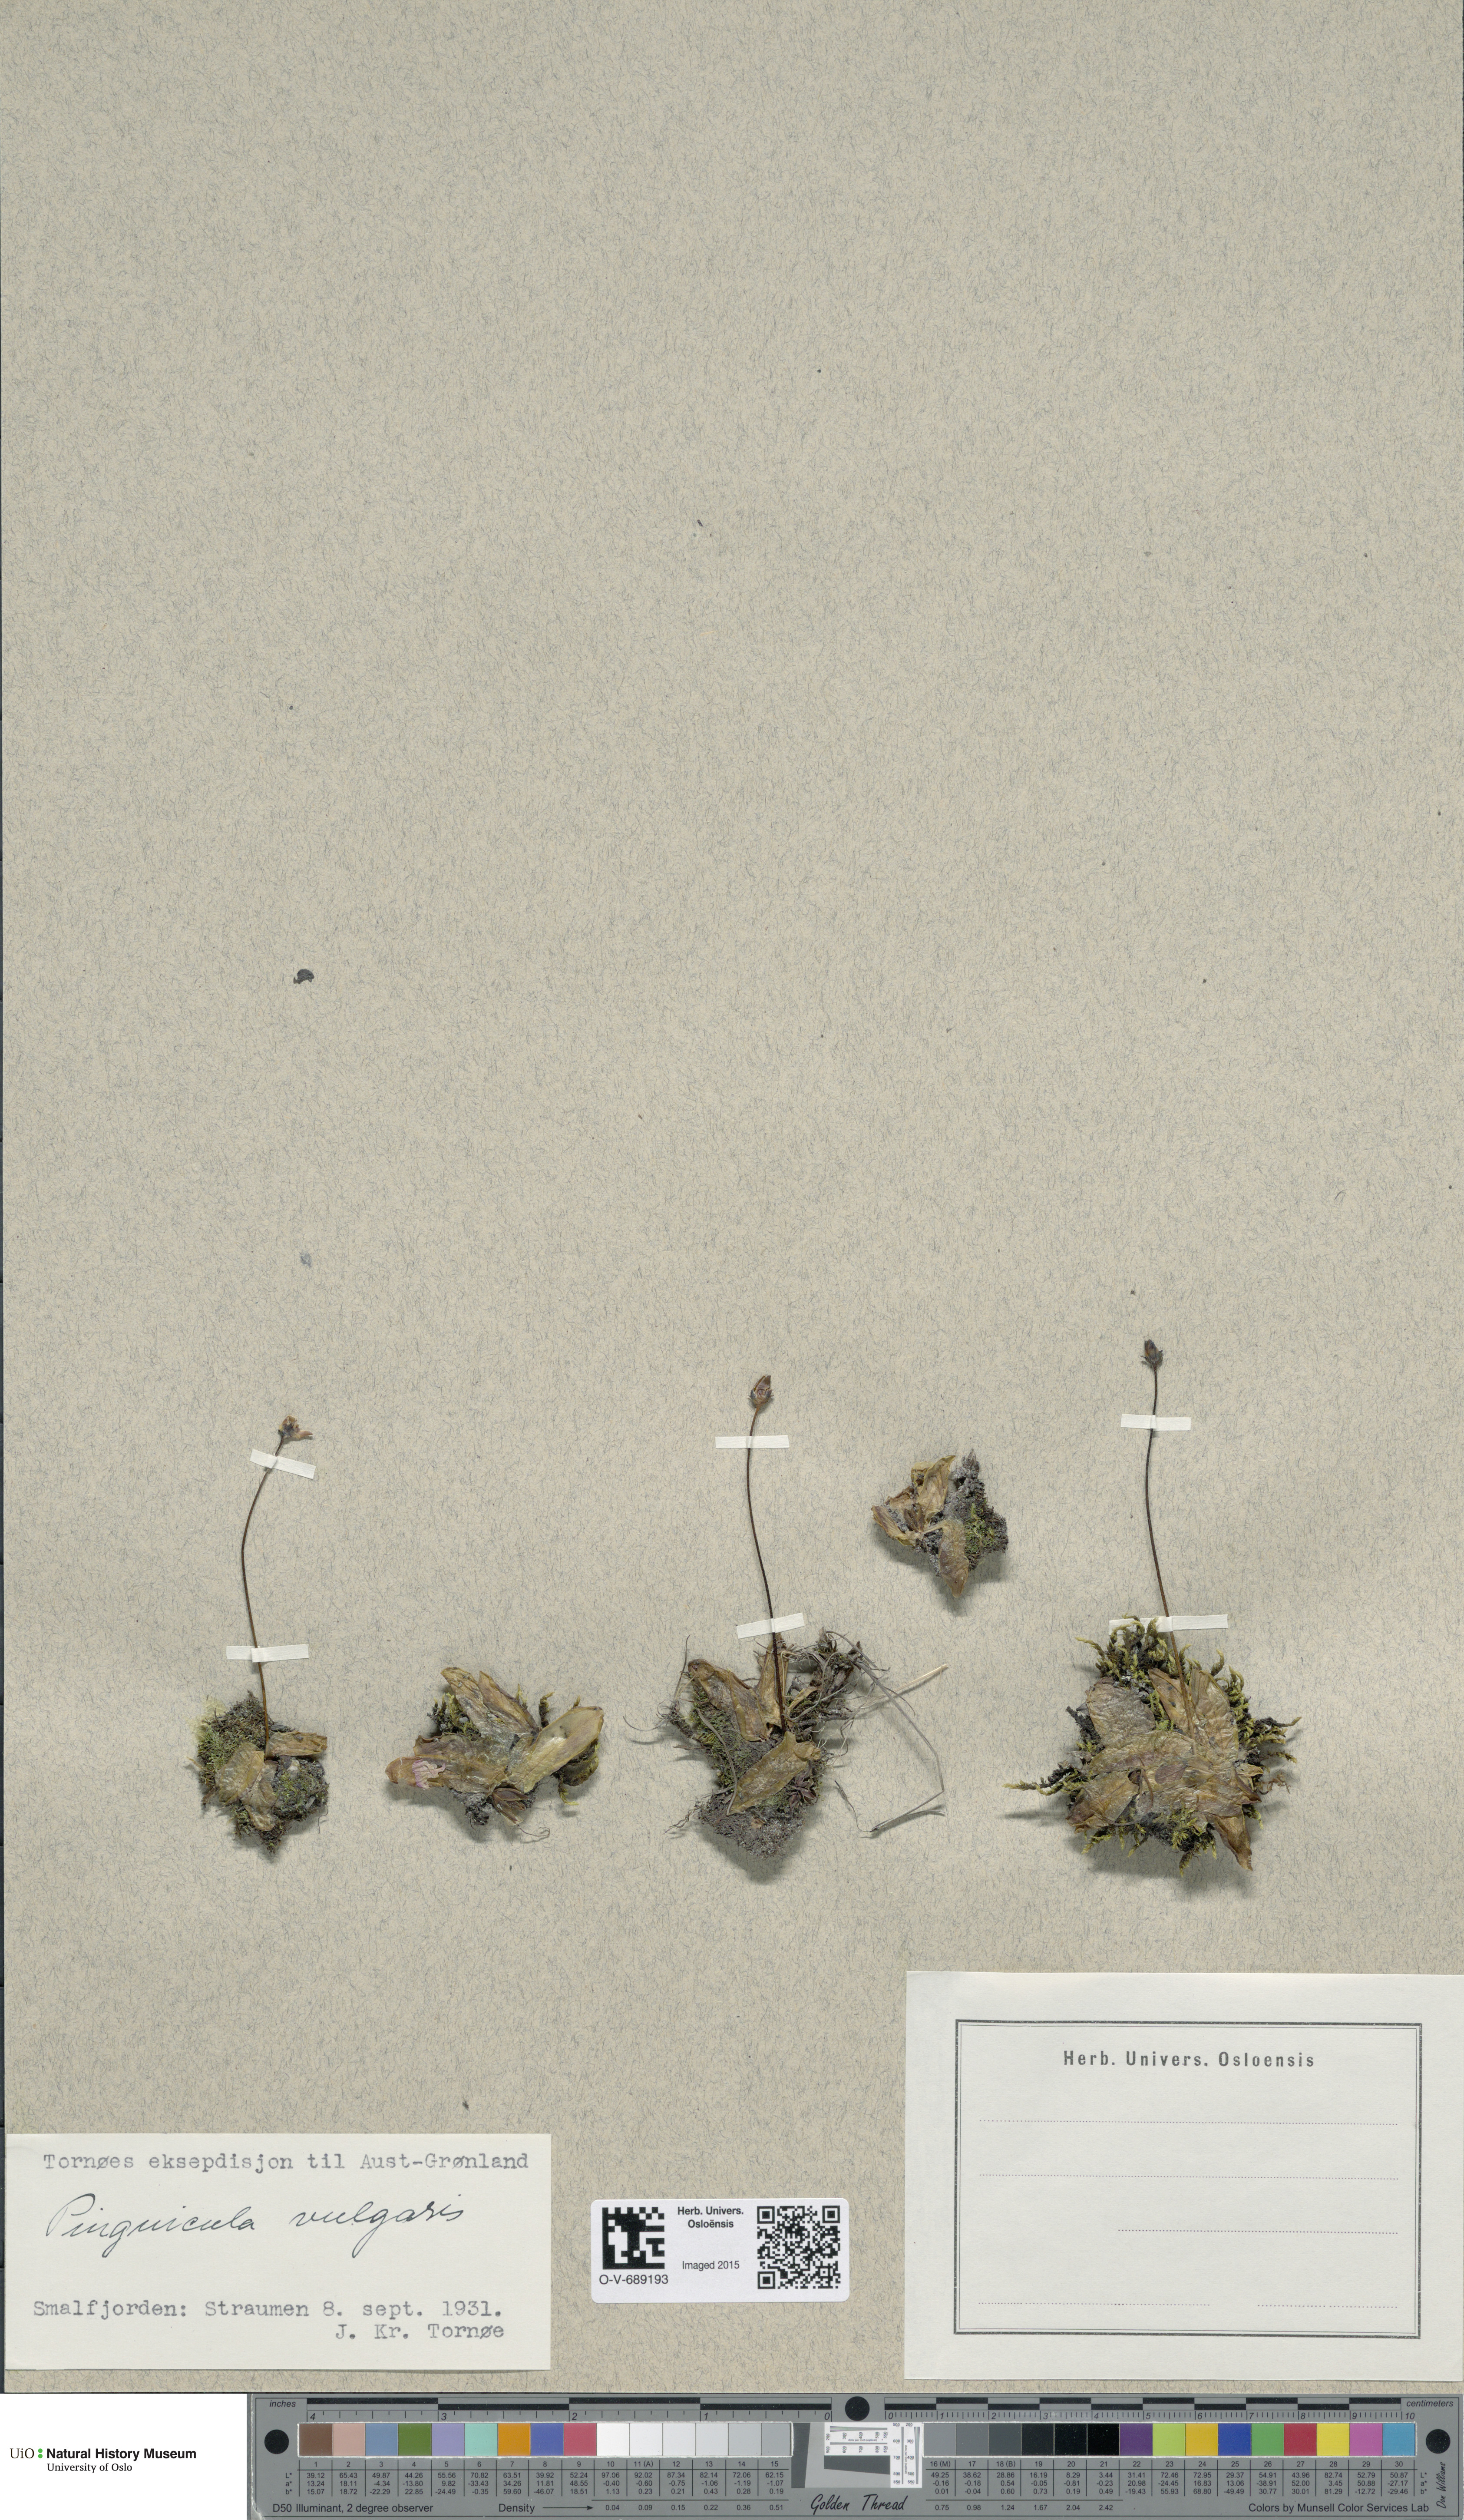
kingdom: Plantae
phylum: Tracheophyta
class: Magnoliopsida
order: Lamiales
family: Lentibulariaceae
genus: Pinguicula
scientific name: Pinguicula vulgaris
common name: Common butterwort
